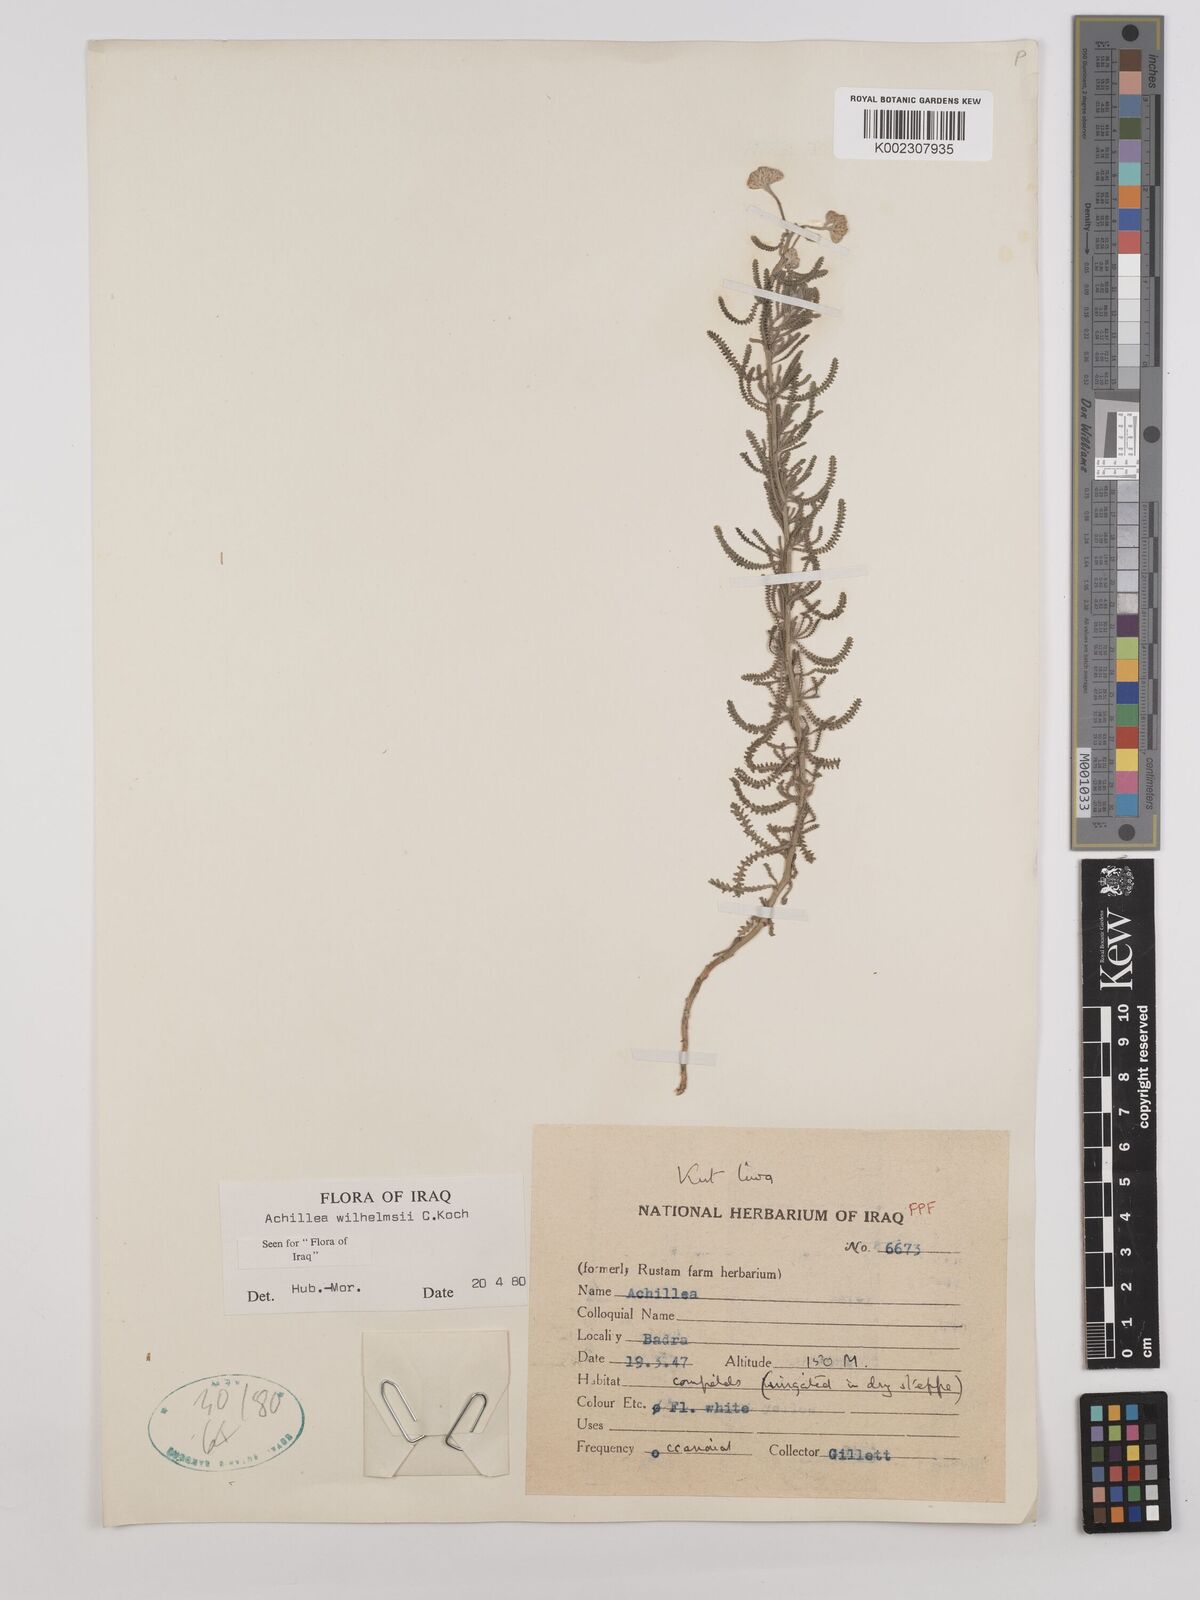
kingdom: Plantae
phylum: Tracheophyta
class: Magnoliopsida
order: Asterales
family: Asteraceae
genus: Achillea
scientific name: Achillea wilhelmsii
